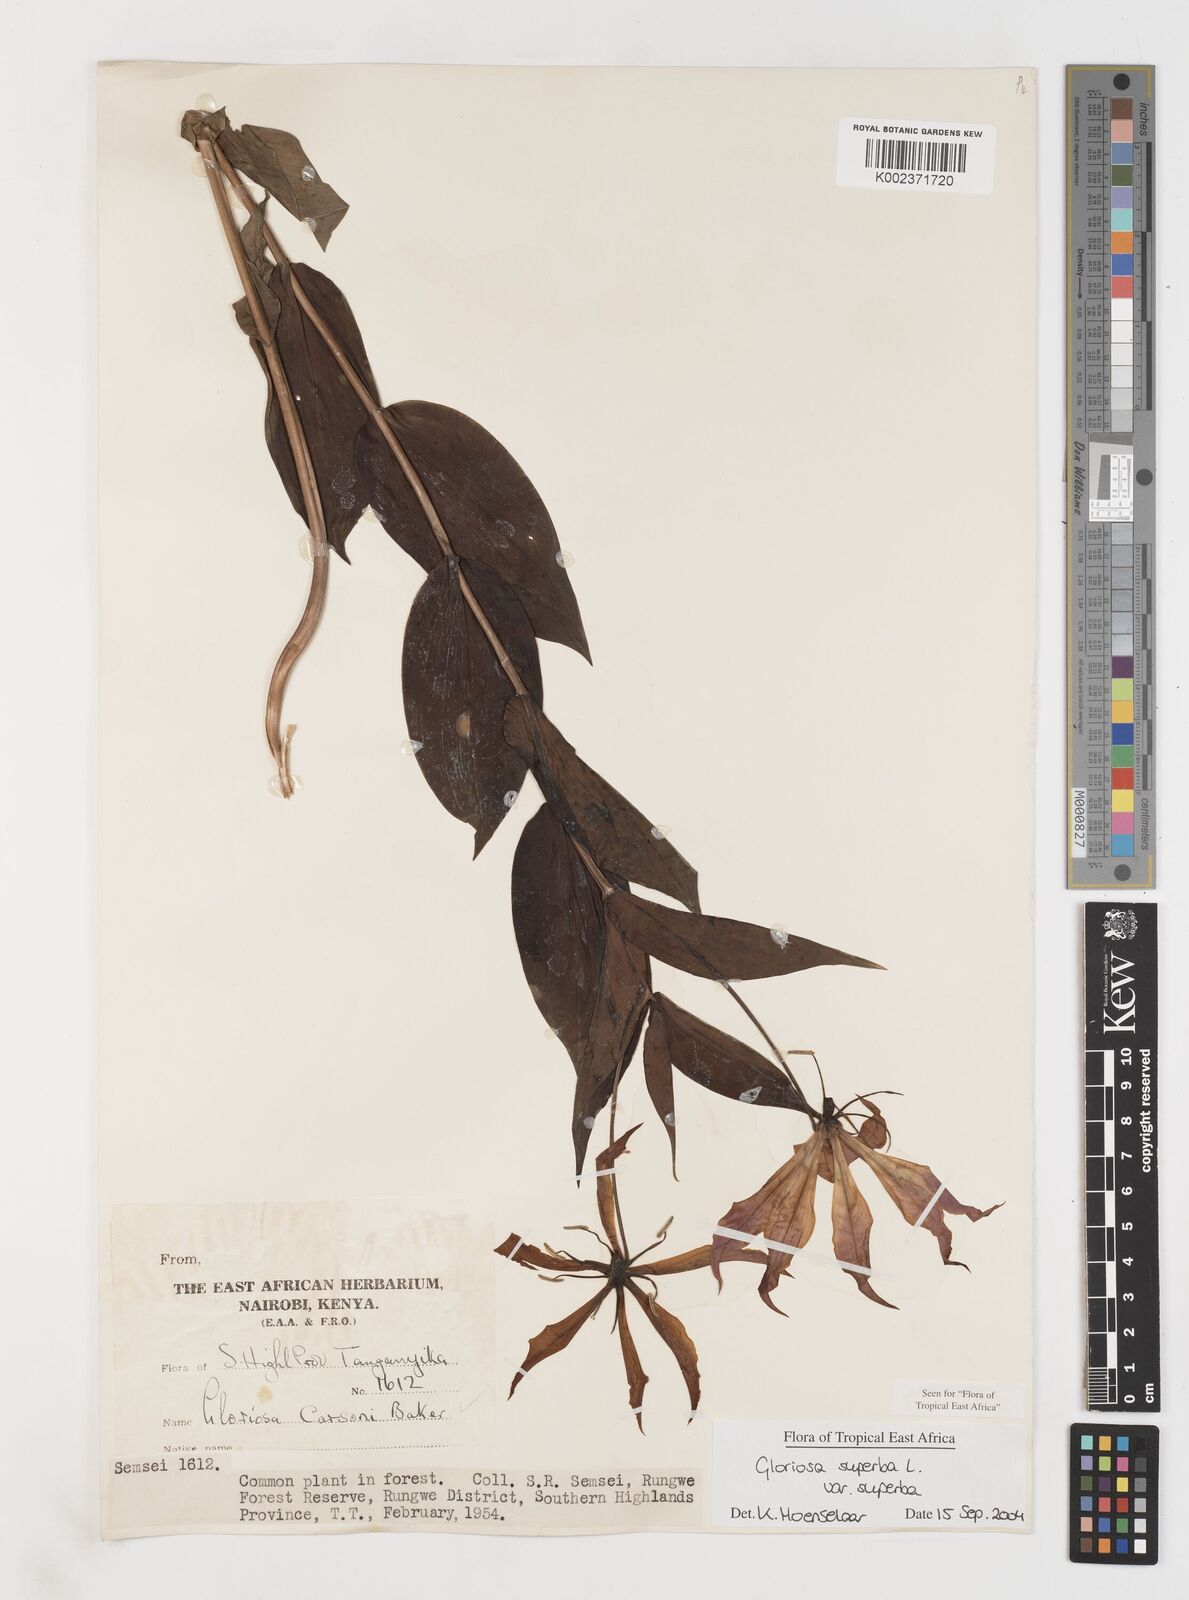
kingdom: Plantae
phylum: Tracheophyta
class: Liliopsida
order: Liliales
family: Colchicaceae
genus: Gloriosa
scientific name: Gloriosa simplex
